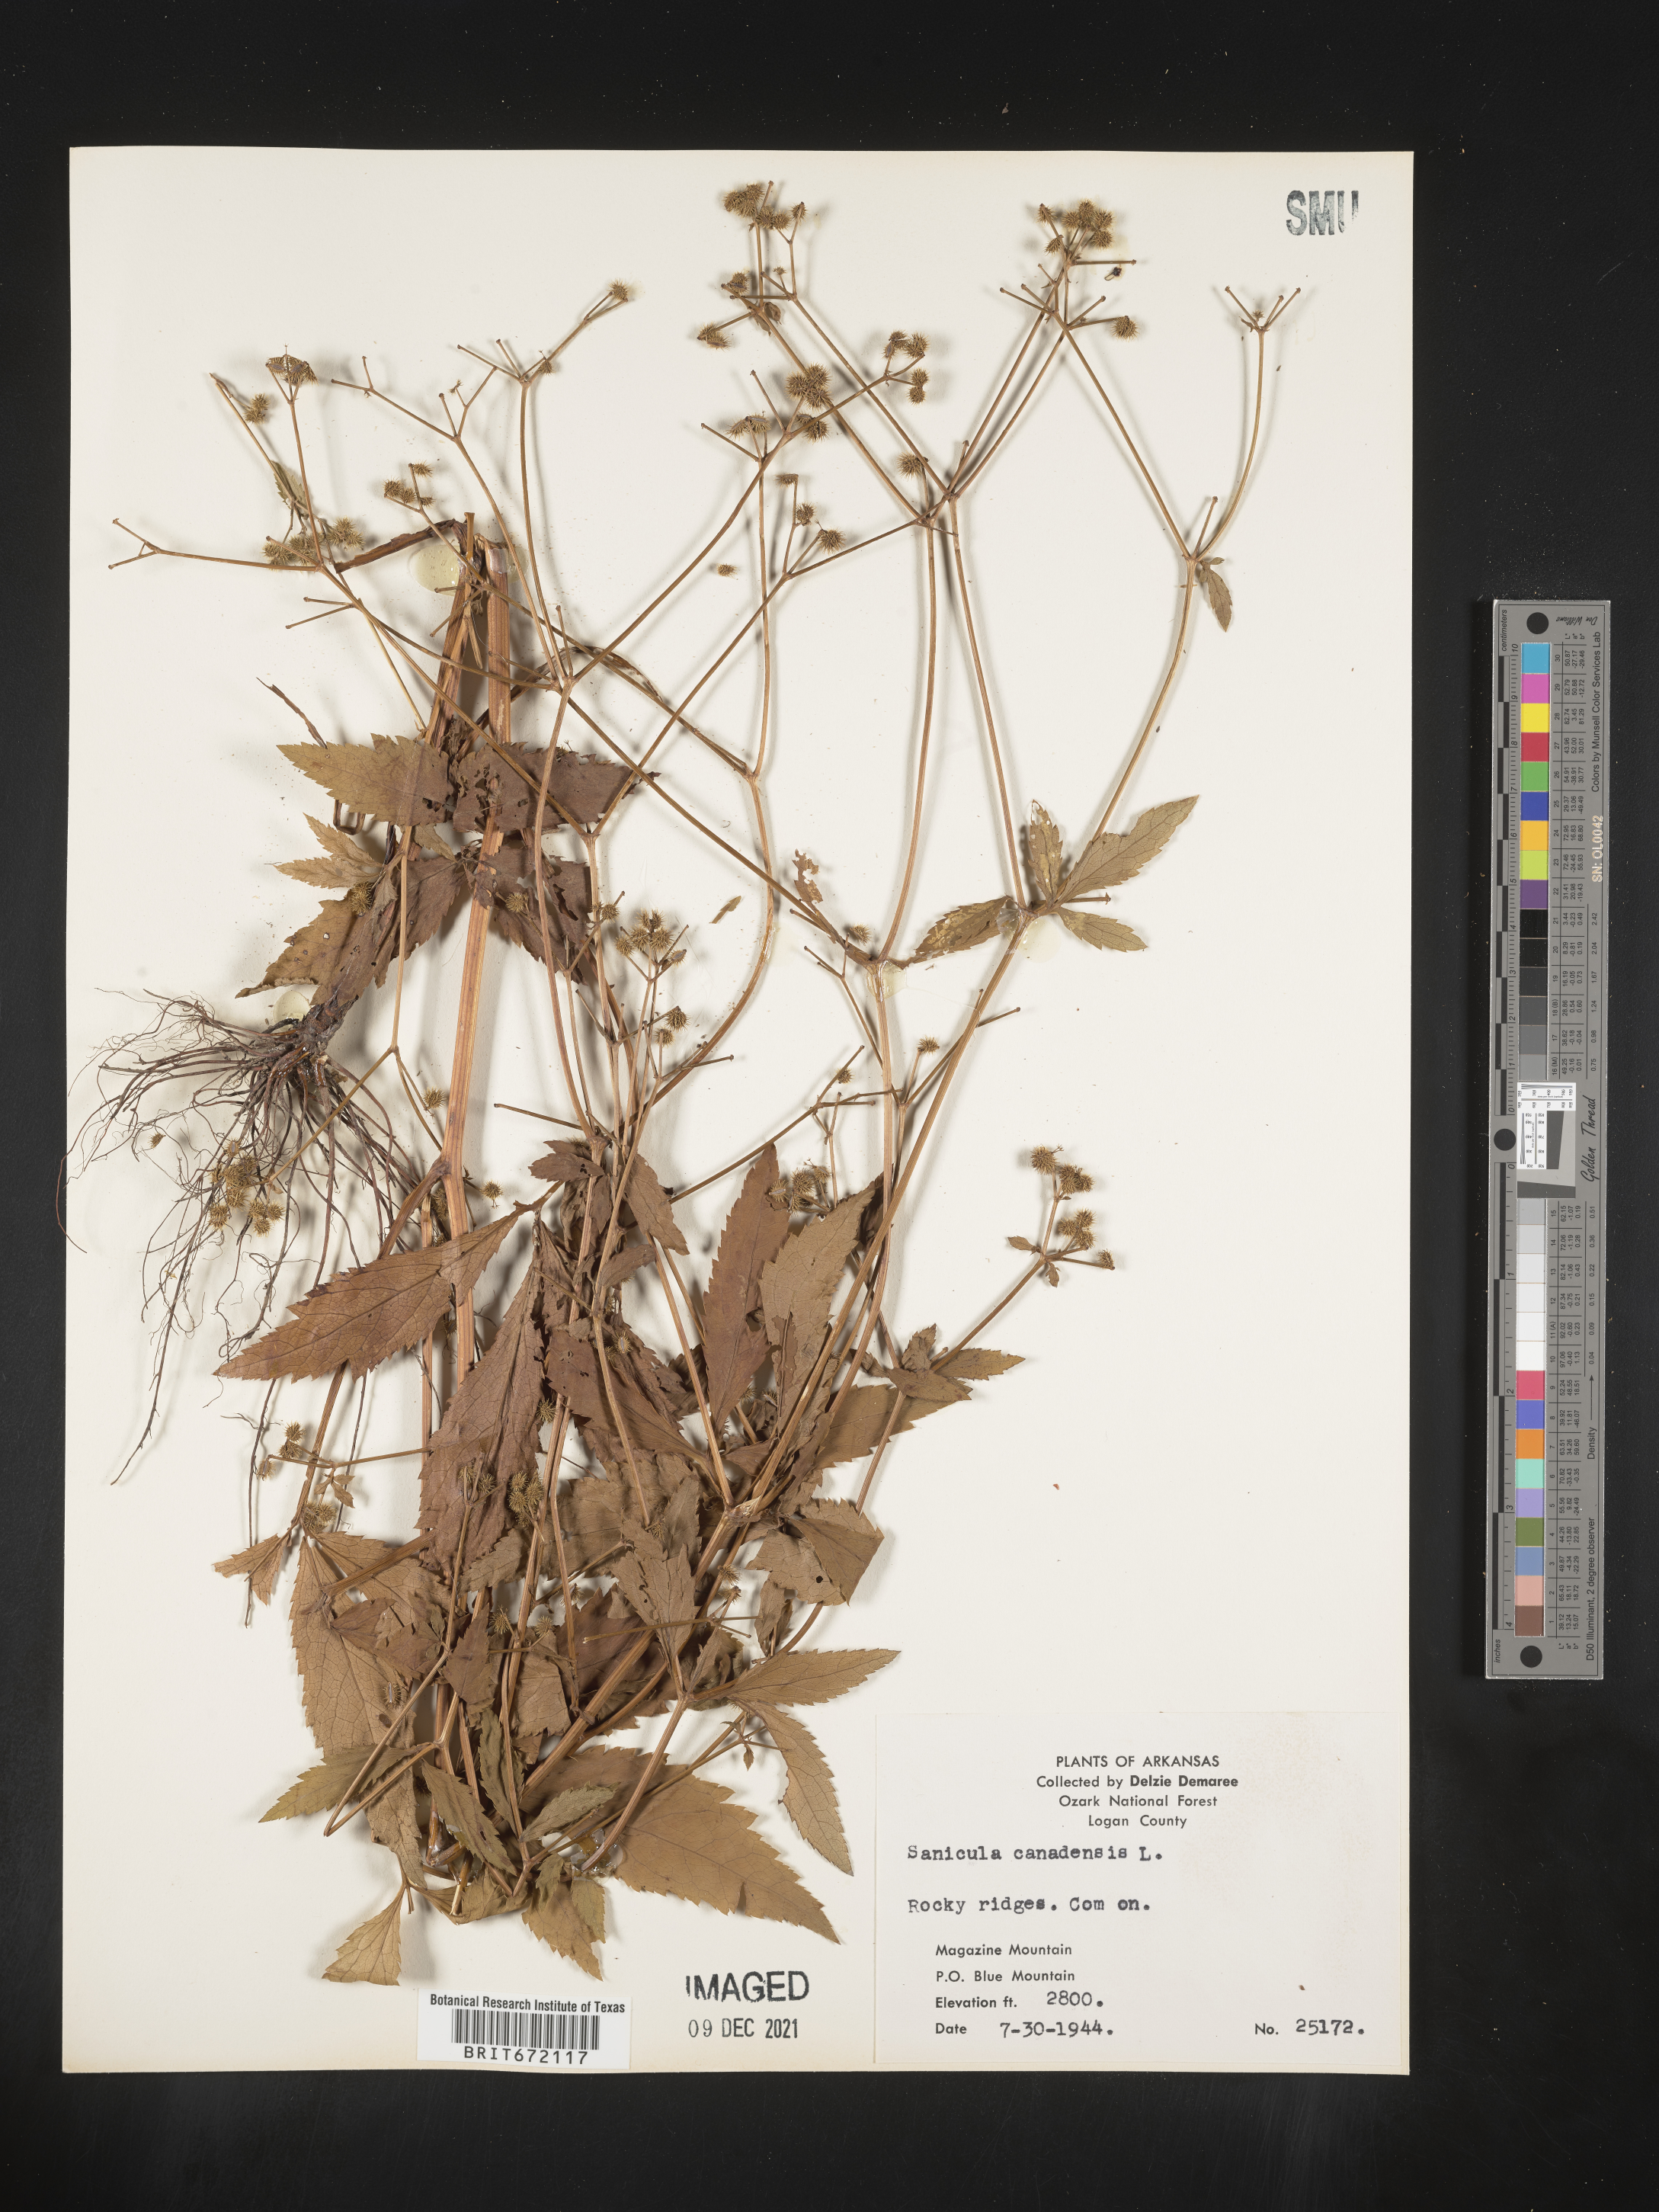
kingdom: Plantae
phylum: Tracheophyta
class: Magnoliopsida
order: Apiales
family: Apiaceae
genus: Sanicula
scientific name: Sanicula canadensis
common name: Canada sanicle
